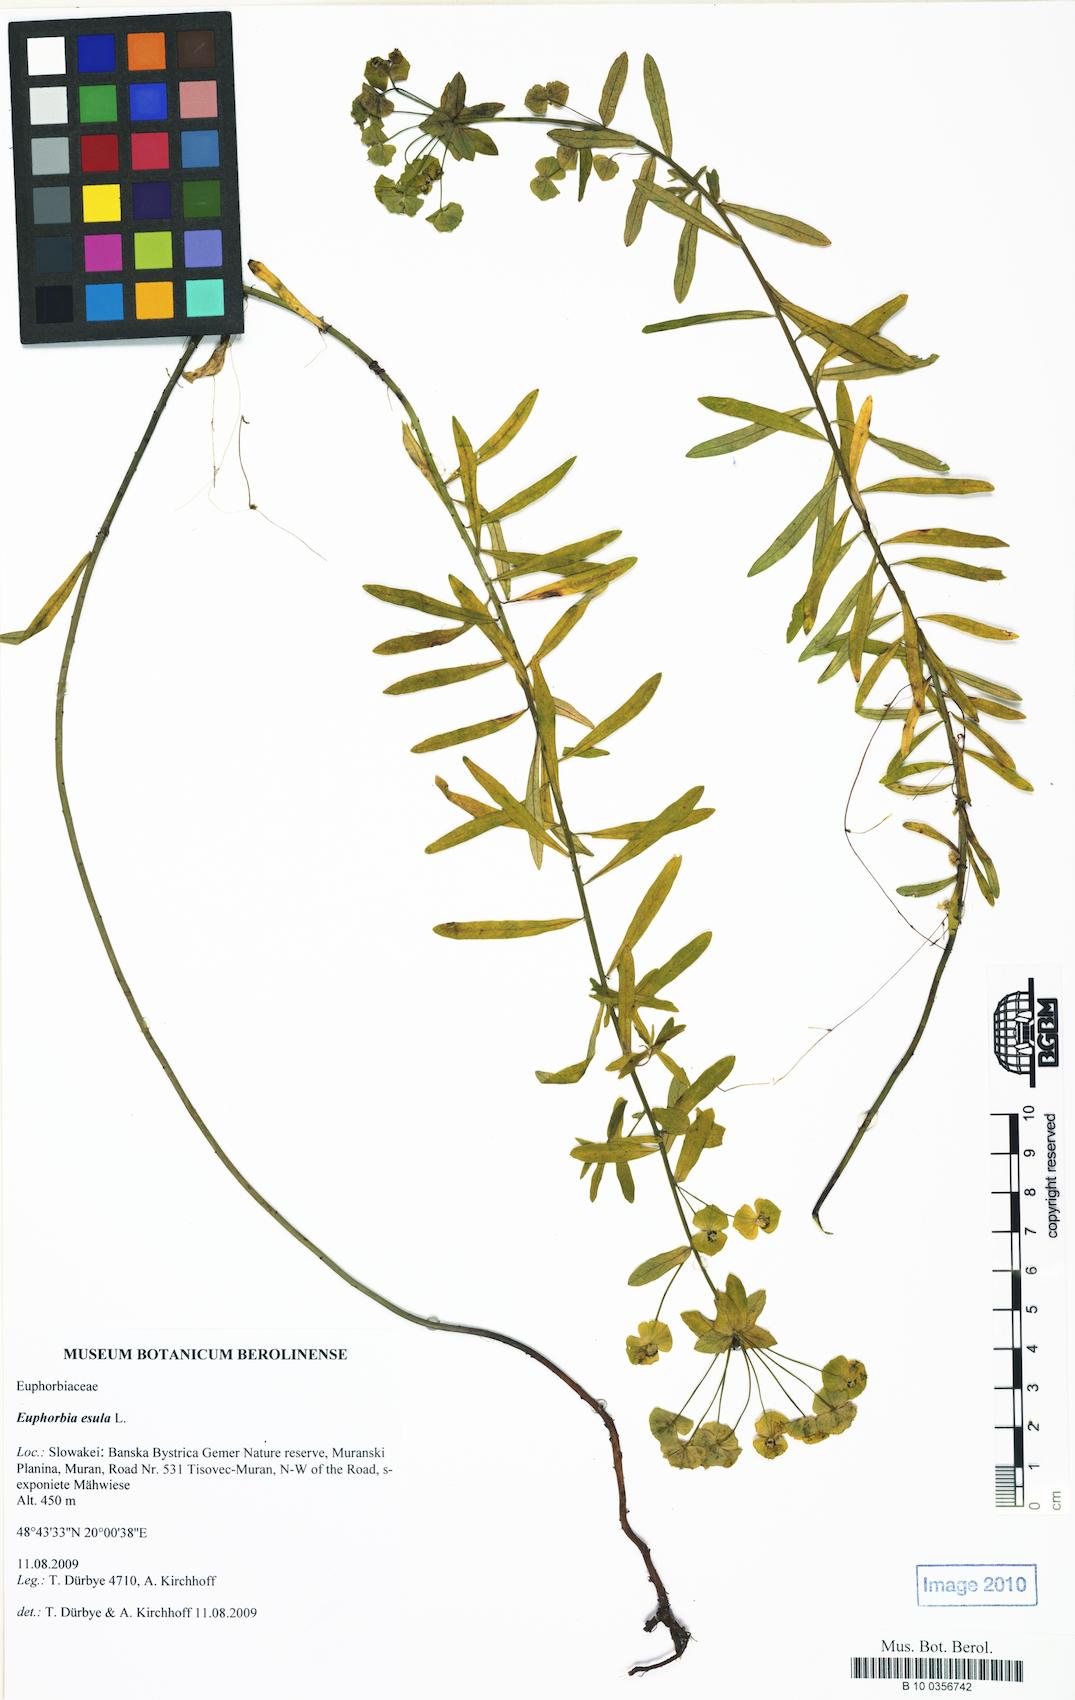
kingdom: Plantae
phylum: Tracheophyta
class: Magnoliopsida
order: Malpighiales
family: Euphorbiaceae
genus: Euphorbia
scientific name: Euphorbia esula
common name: Leafy spurge
